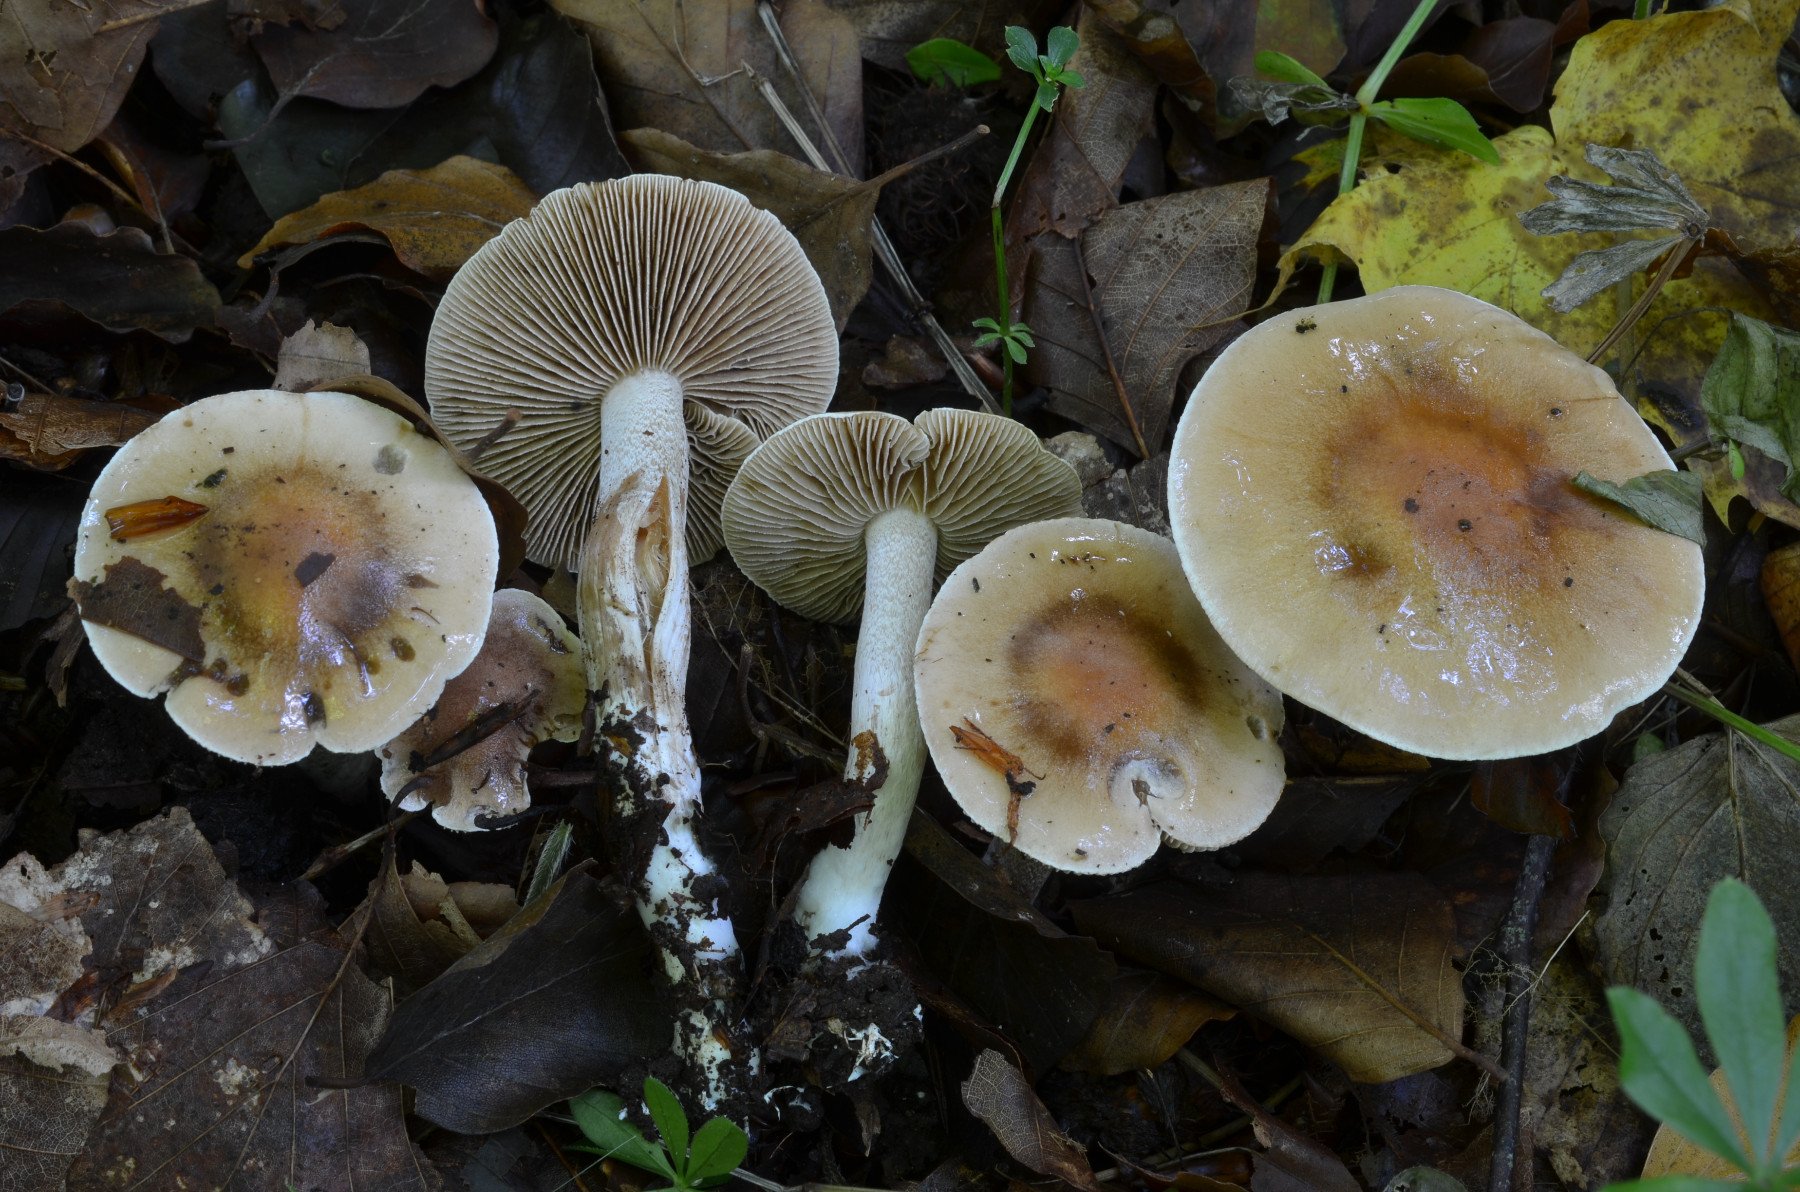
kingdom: Fungi
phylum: Basidiomycota
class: Agaricomycetes
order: Agaricales
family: Hymenogastraceae
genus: Hebeloma
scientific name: Hebeloma
